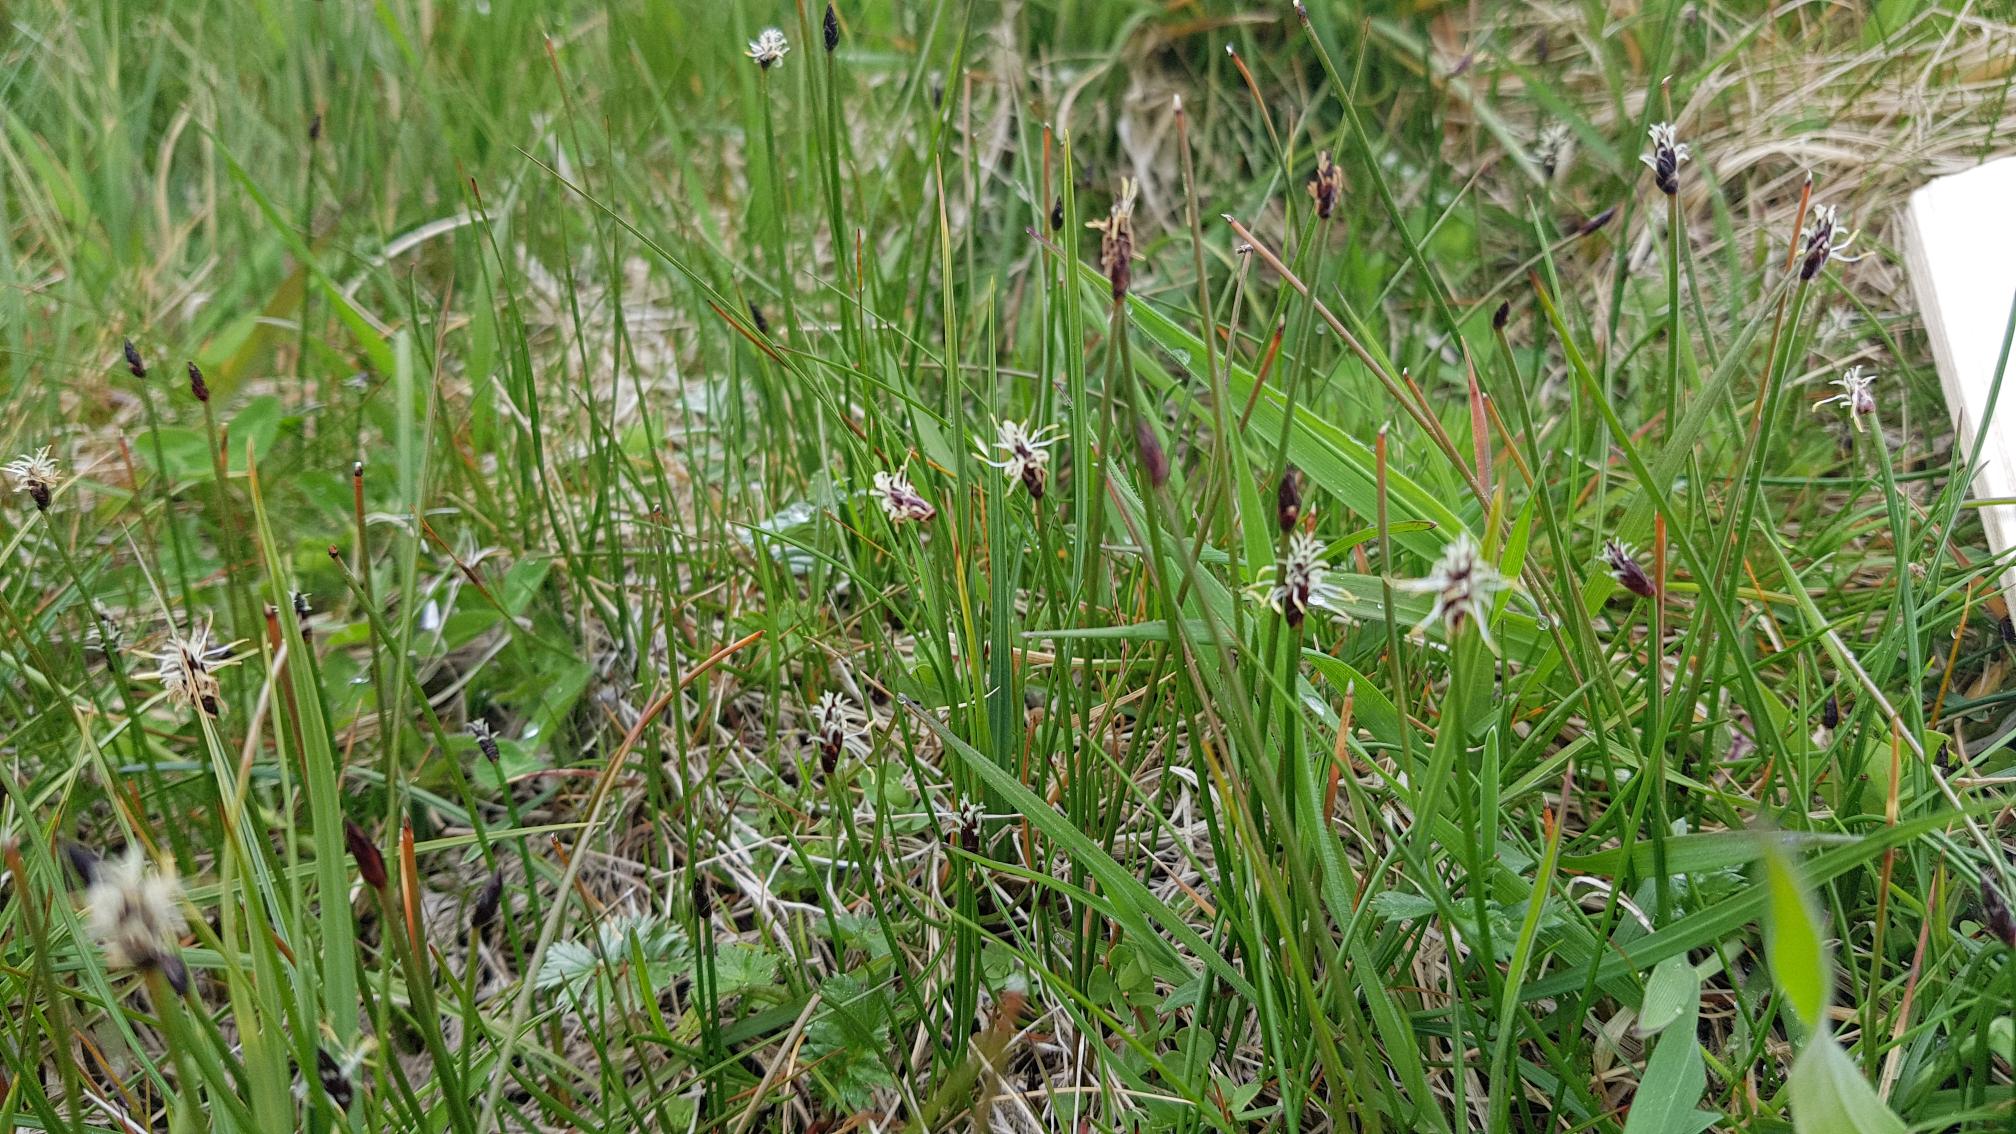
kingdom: Plantae
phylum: Tracheophyta
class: Liliopsida
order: Poales
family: Cyperaceae
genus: Eleocharis
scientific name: Eleocharis uniglumis
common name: Enskællet sumpstrå
